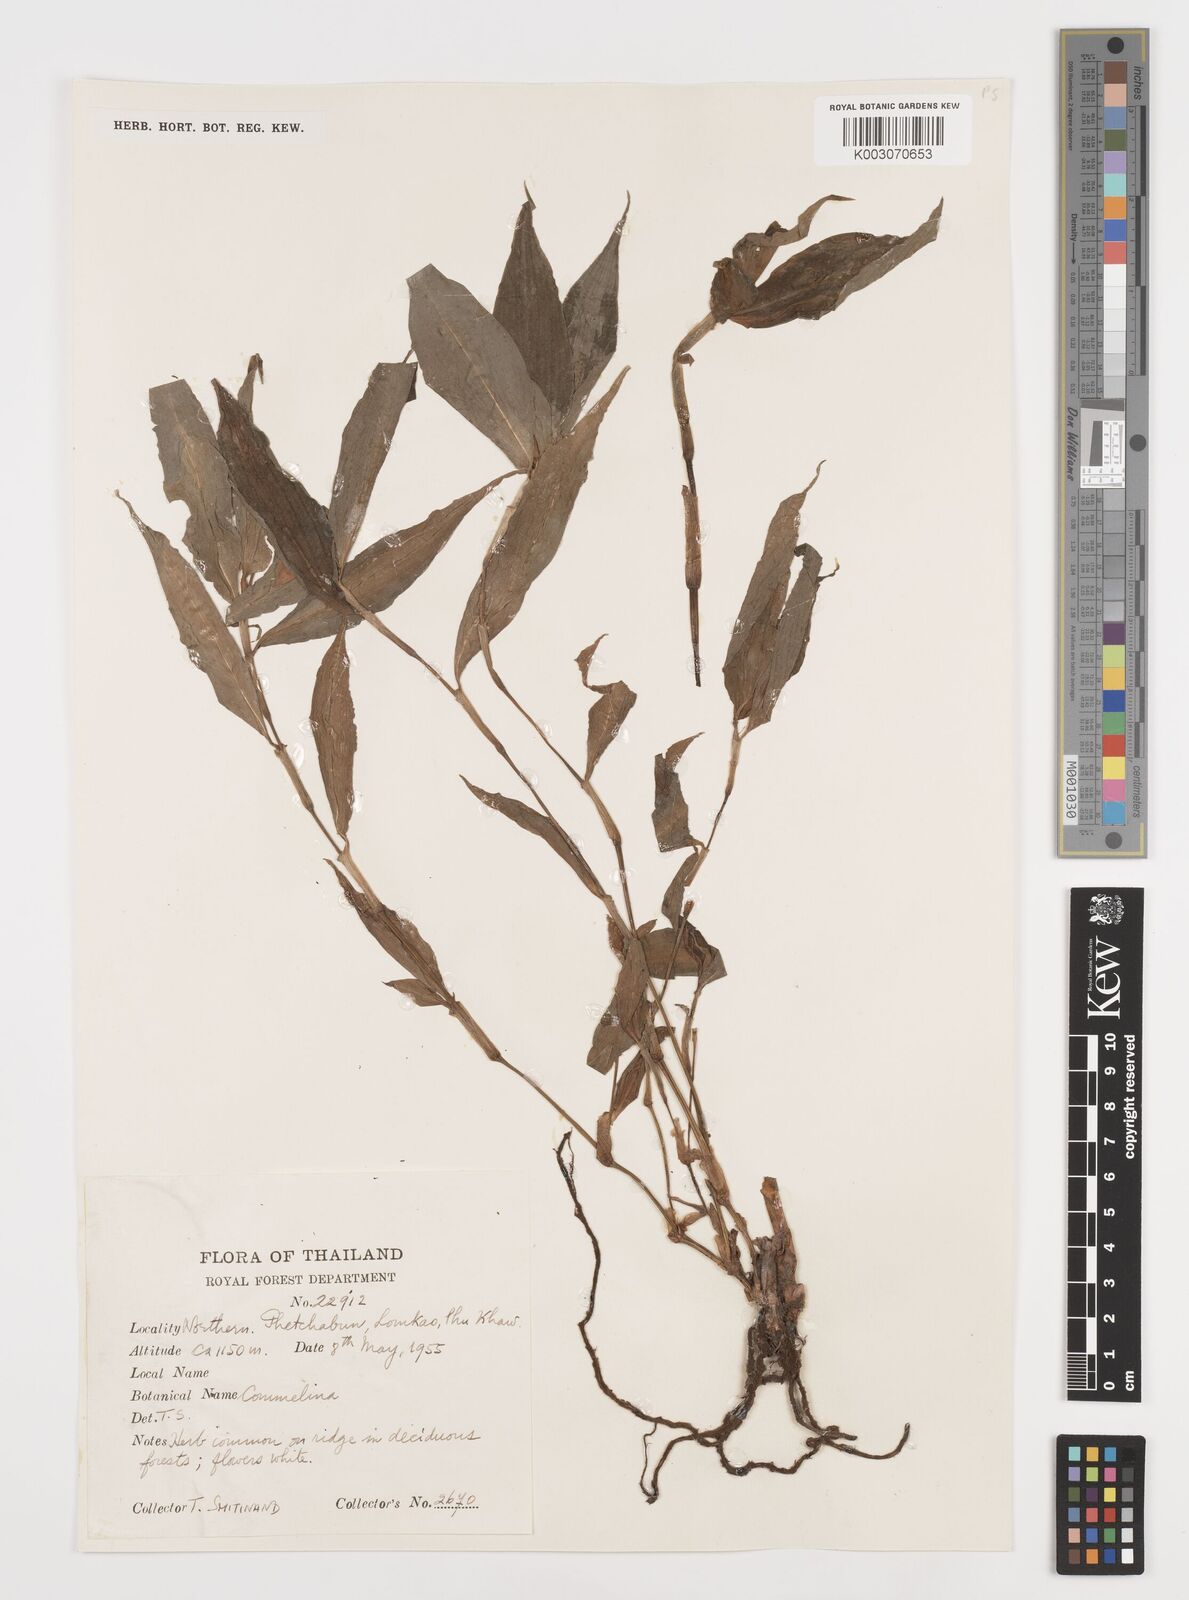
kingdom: Plantae
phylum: Tracheophyta
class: Liliopsida
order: Commelinales
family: Commelinaceae
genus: Commelina
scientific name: Commelina
